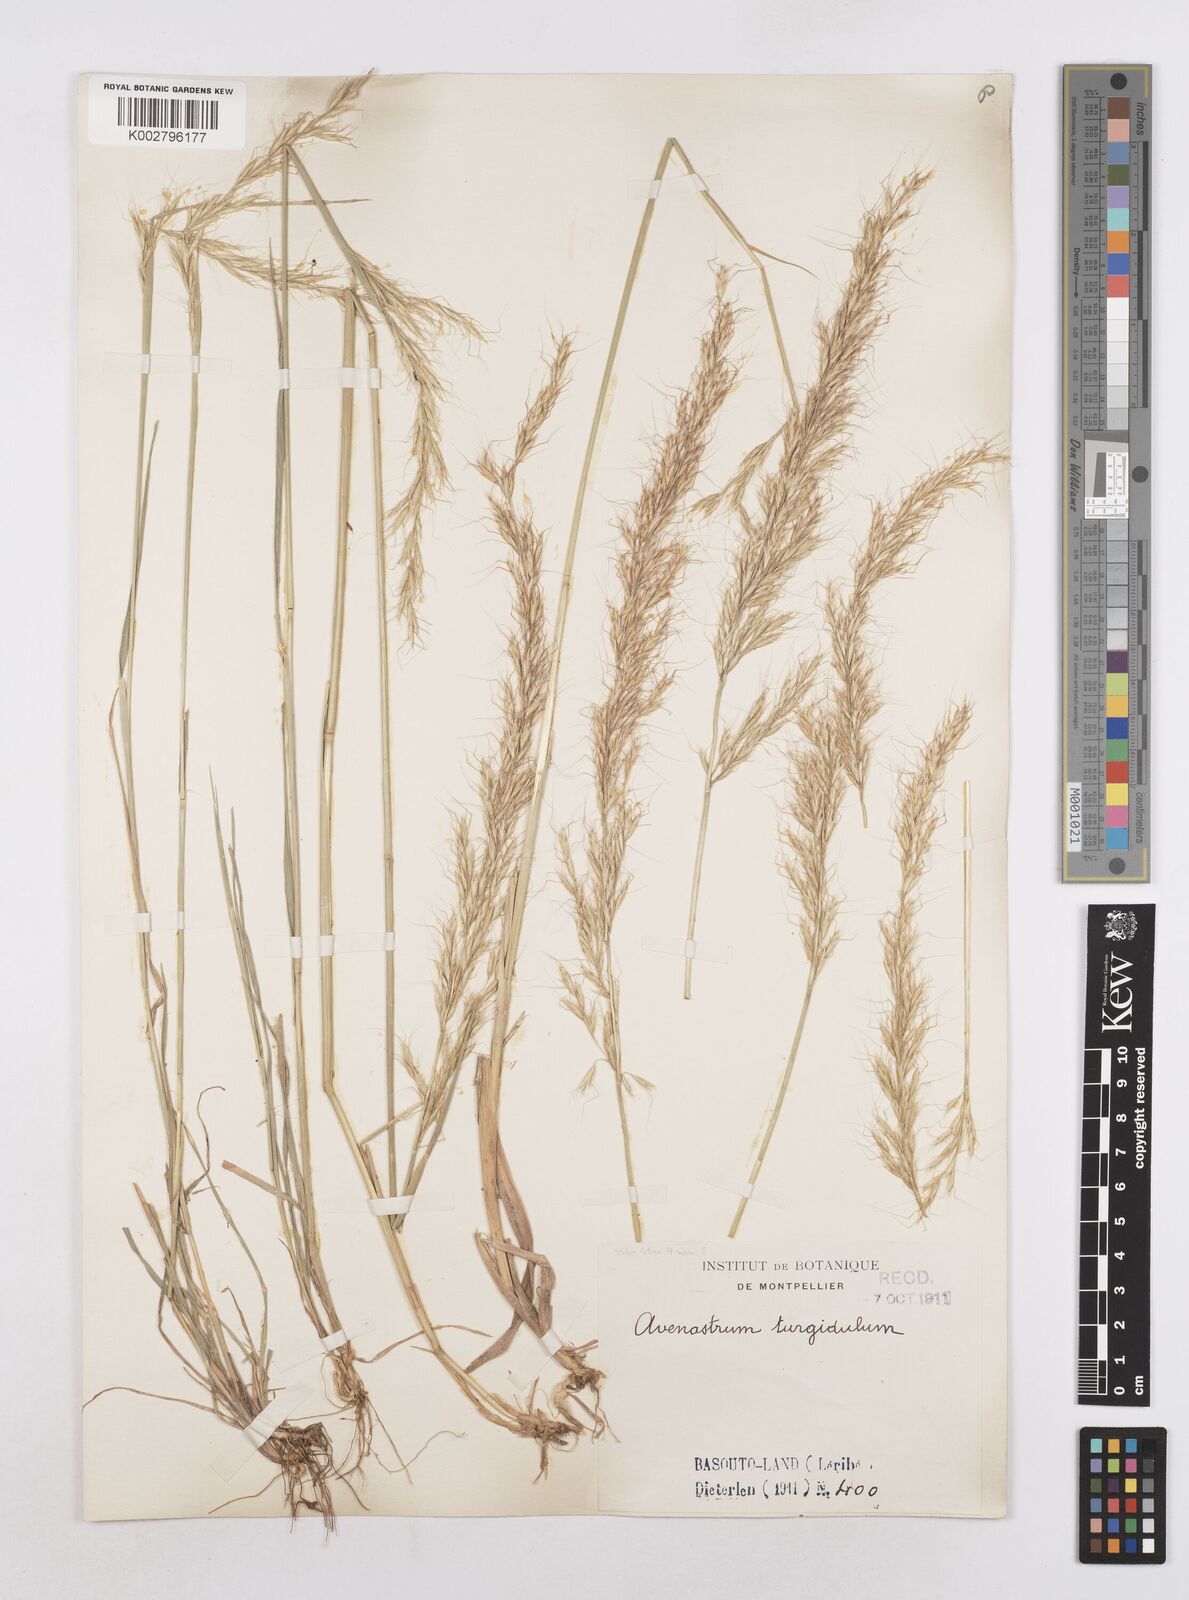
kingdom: Plantae
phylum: Tracheophyta
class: Liliopsida
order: Poales
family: Poaceae
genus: Trisetopsis
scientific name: Trisetopsis imberbis
